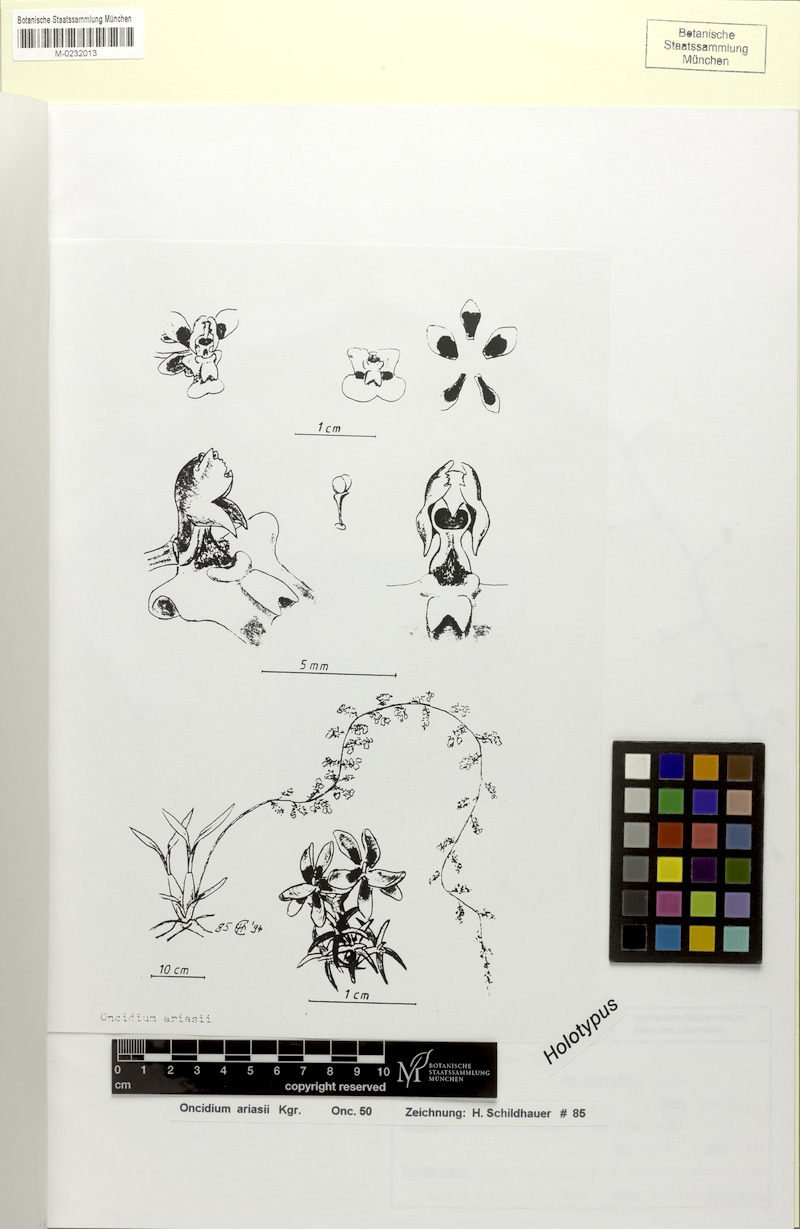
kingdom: Plantae
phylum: Tracheophyta
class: Liliopsida
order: Asparagales
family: Orchidaceae
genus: Oncidium
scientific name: Oncidium ariasii
